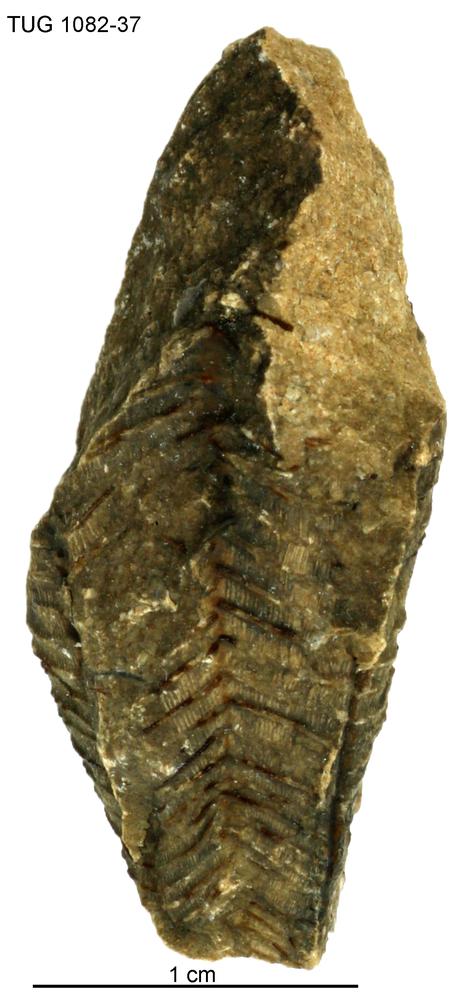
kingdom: Animalia
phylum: Cnidaria
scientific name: Cnidaria
